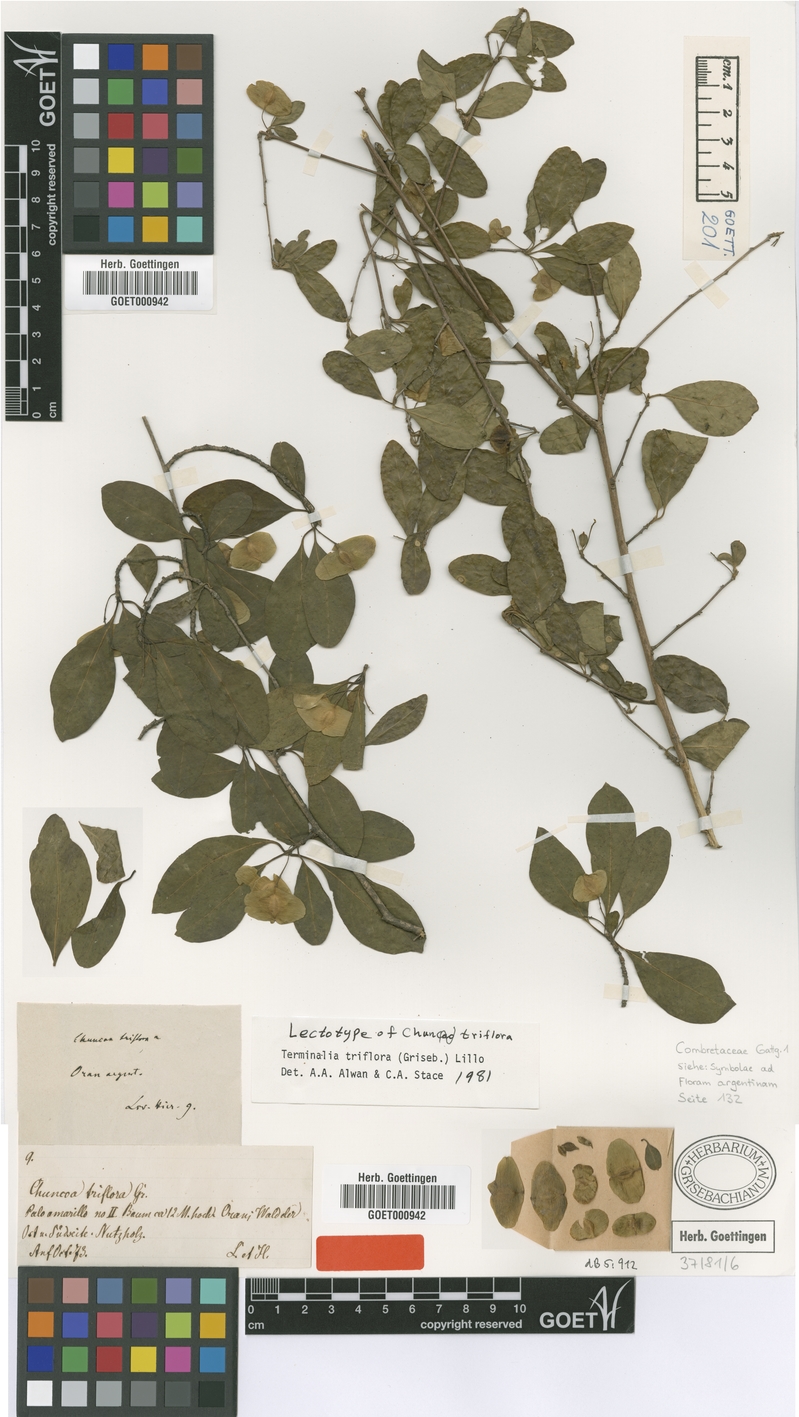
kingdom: Plantae
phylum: Tracheophyta
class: Magnoliopsida
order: Myrtales
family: Combretaceae
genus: Terminalia
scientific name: Terminalia triflora
